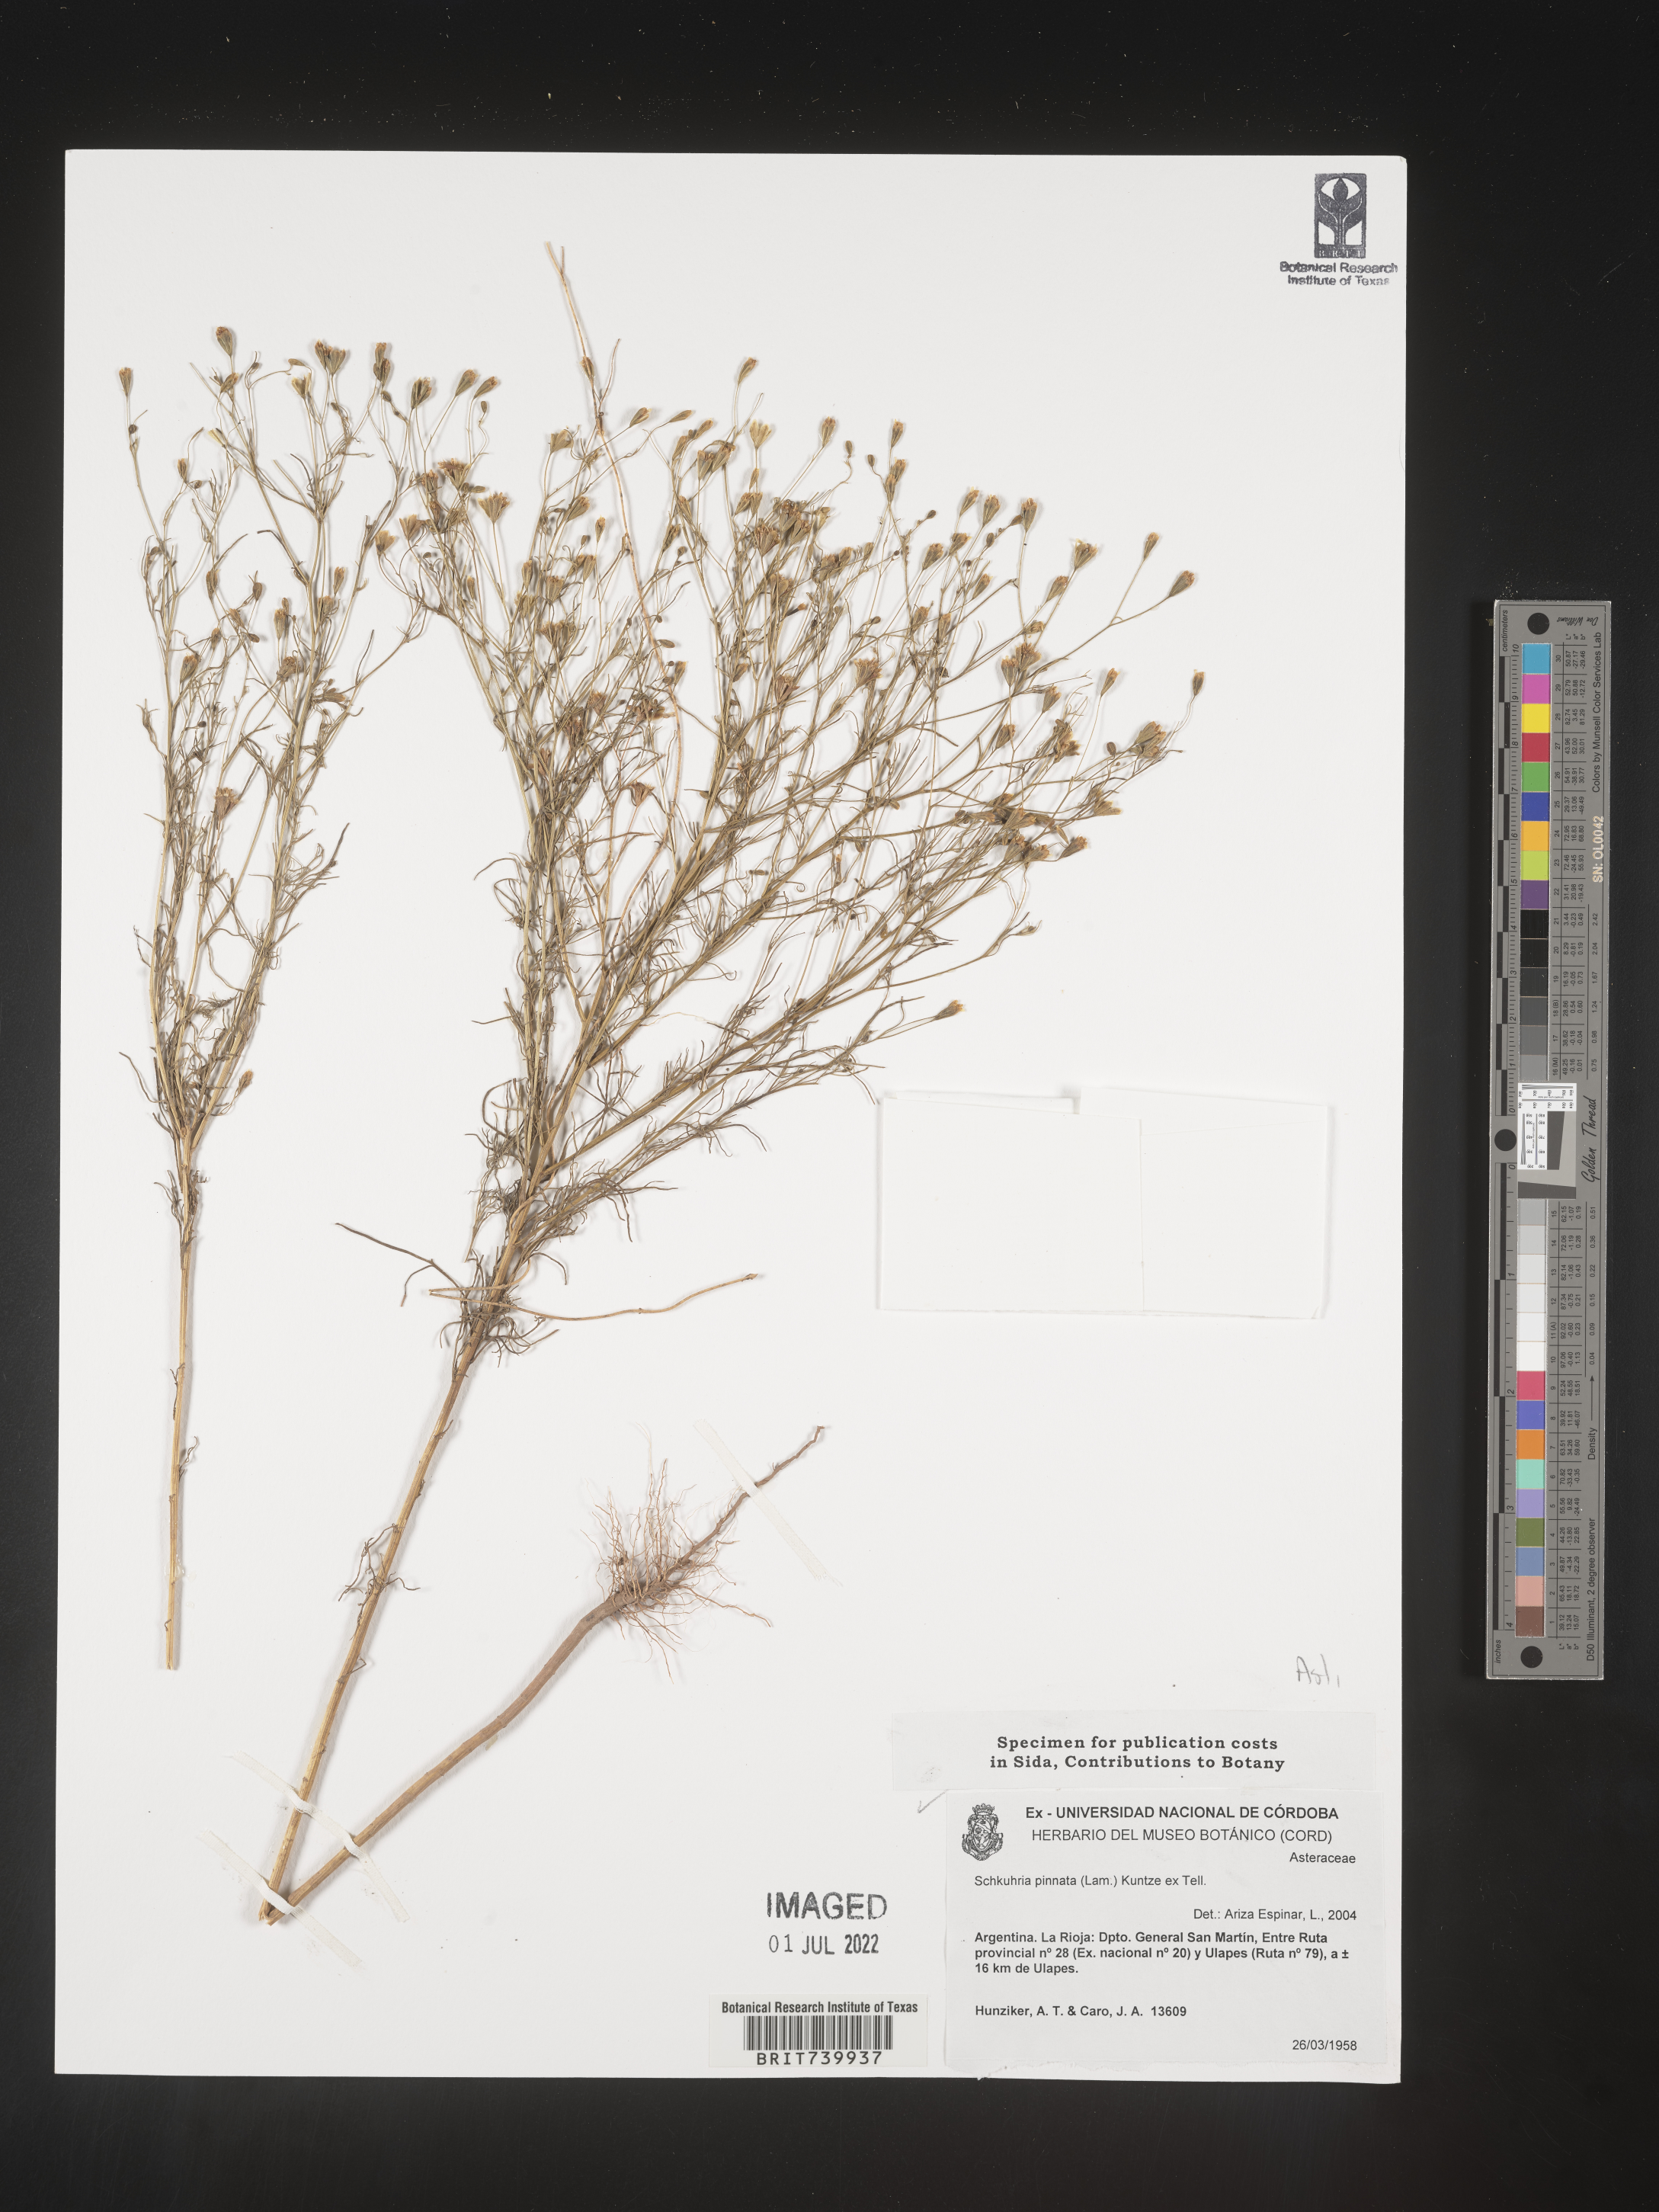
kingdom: Plantae
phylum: Tracheophyta
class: Magnoliopsida
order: Asterales
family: Asteraceae
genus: Schkuhria
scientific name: Schkuhria
